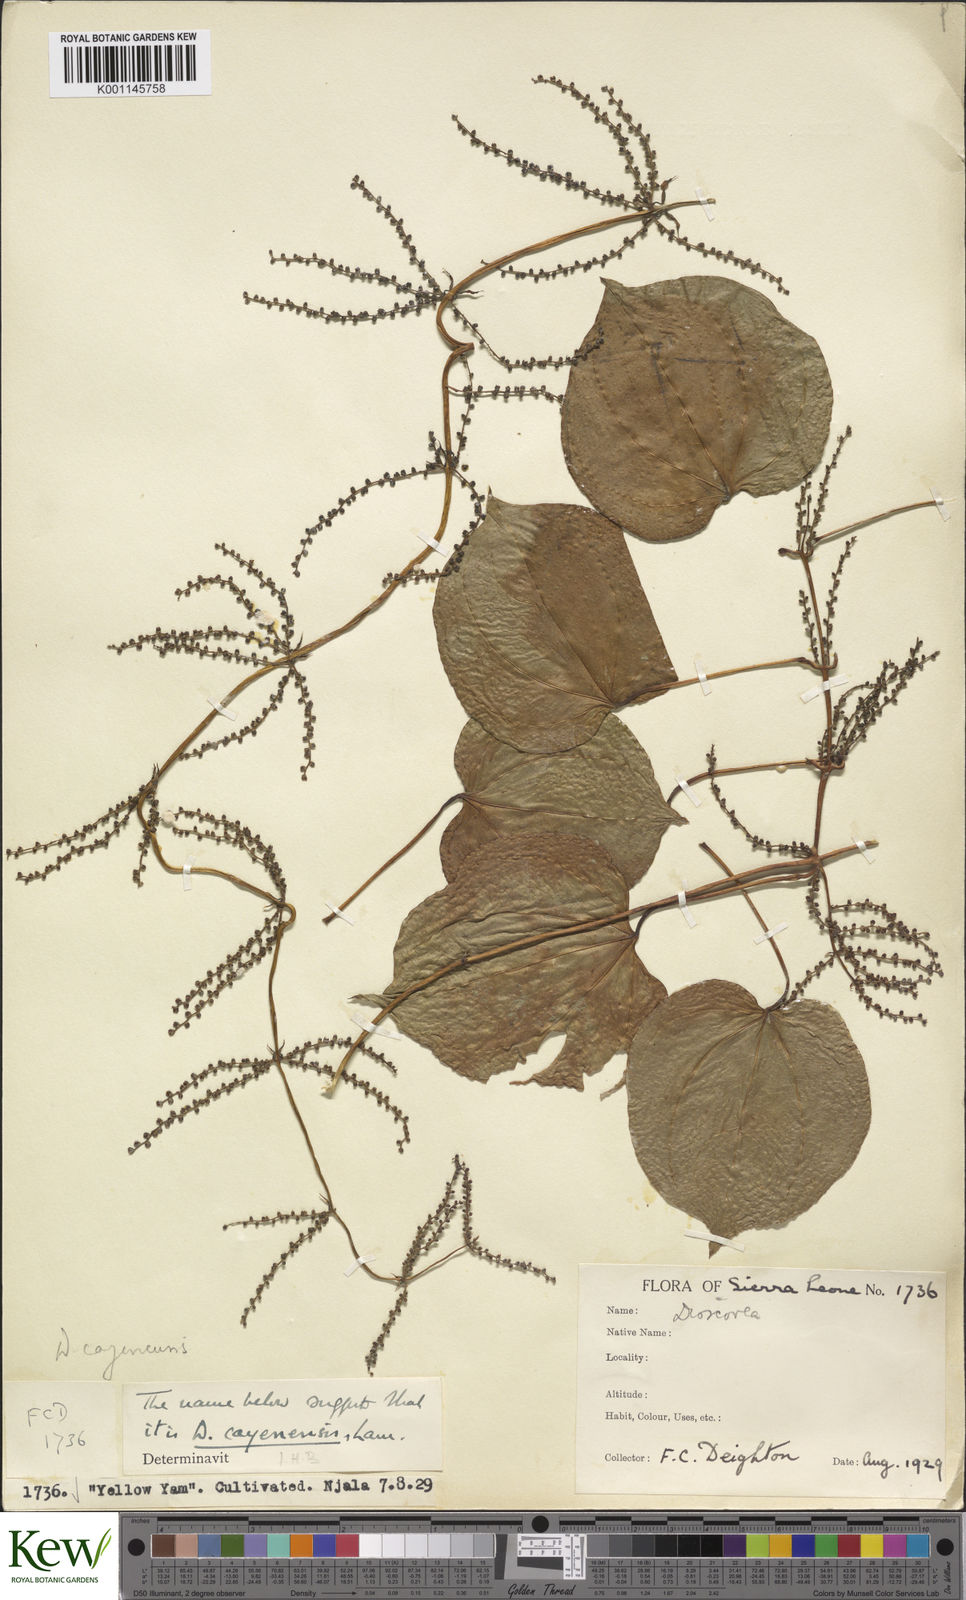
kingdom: Plantae
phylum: Tracheophyta
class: Liliopsida
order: Dioscoreales
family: Dioscoreaceae
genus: Dioscorea
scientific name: Dioscorea cayenensis
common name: Attoto yam
